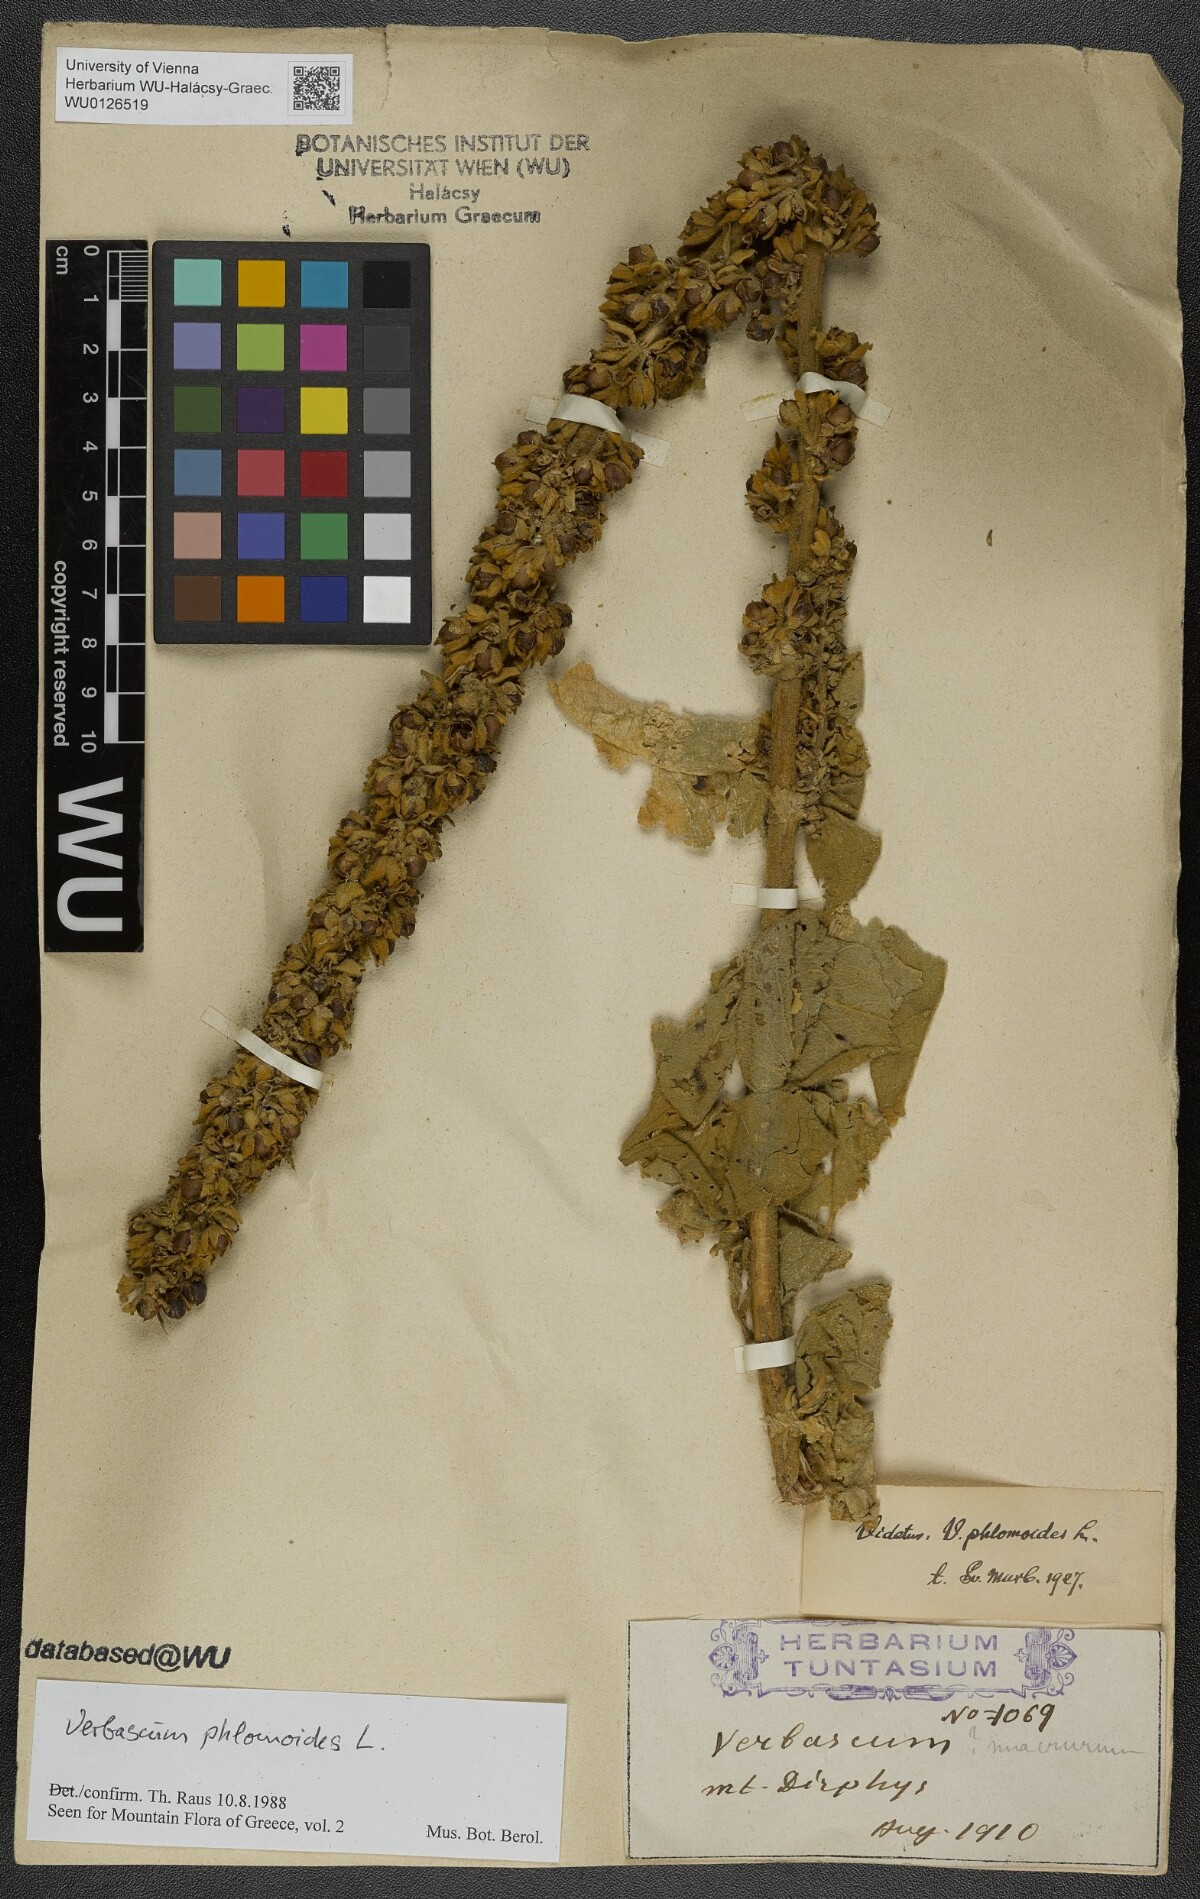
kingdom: Plantae
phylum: Tracheophyta
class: Magnoliopsida
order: Lamiales
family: Scrophulariaceae
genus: Verbascum
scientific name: Verbascum phlomoides
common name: Orange mullein
